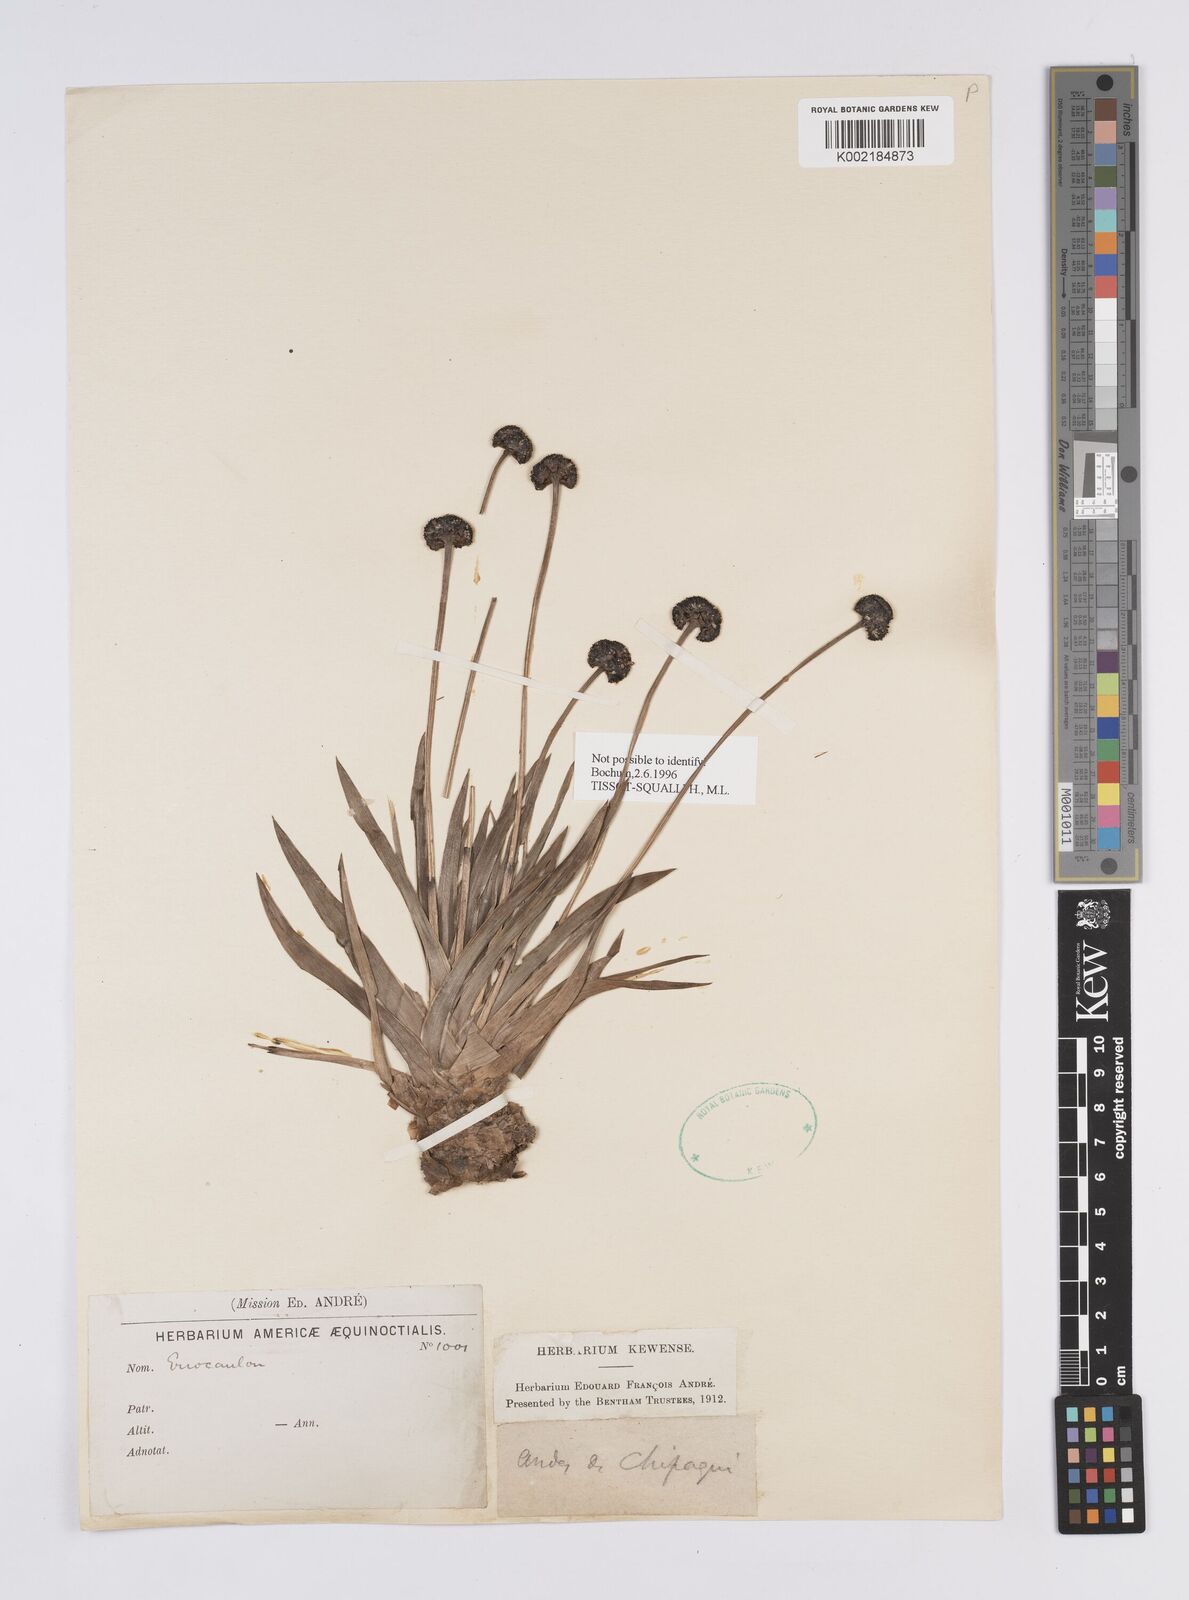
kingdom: Plantae
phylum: Tracheophyta
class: Liliopsida
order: Poales
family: Eriocaulaceae
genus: Eriocaulon
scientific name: Eriocaulon
